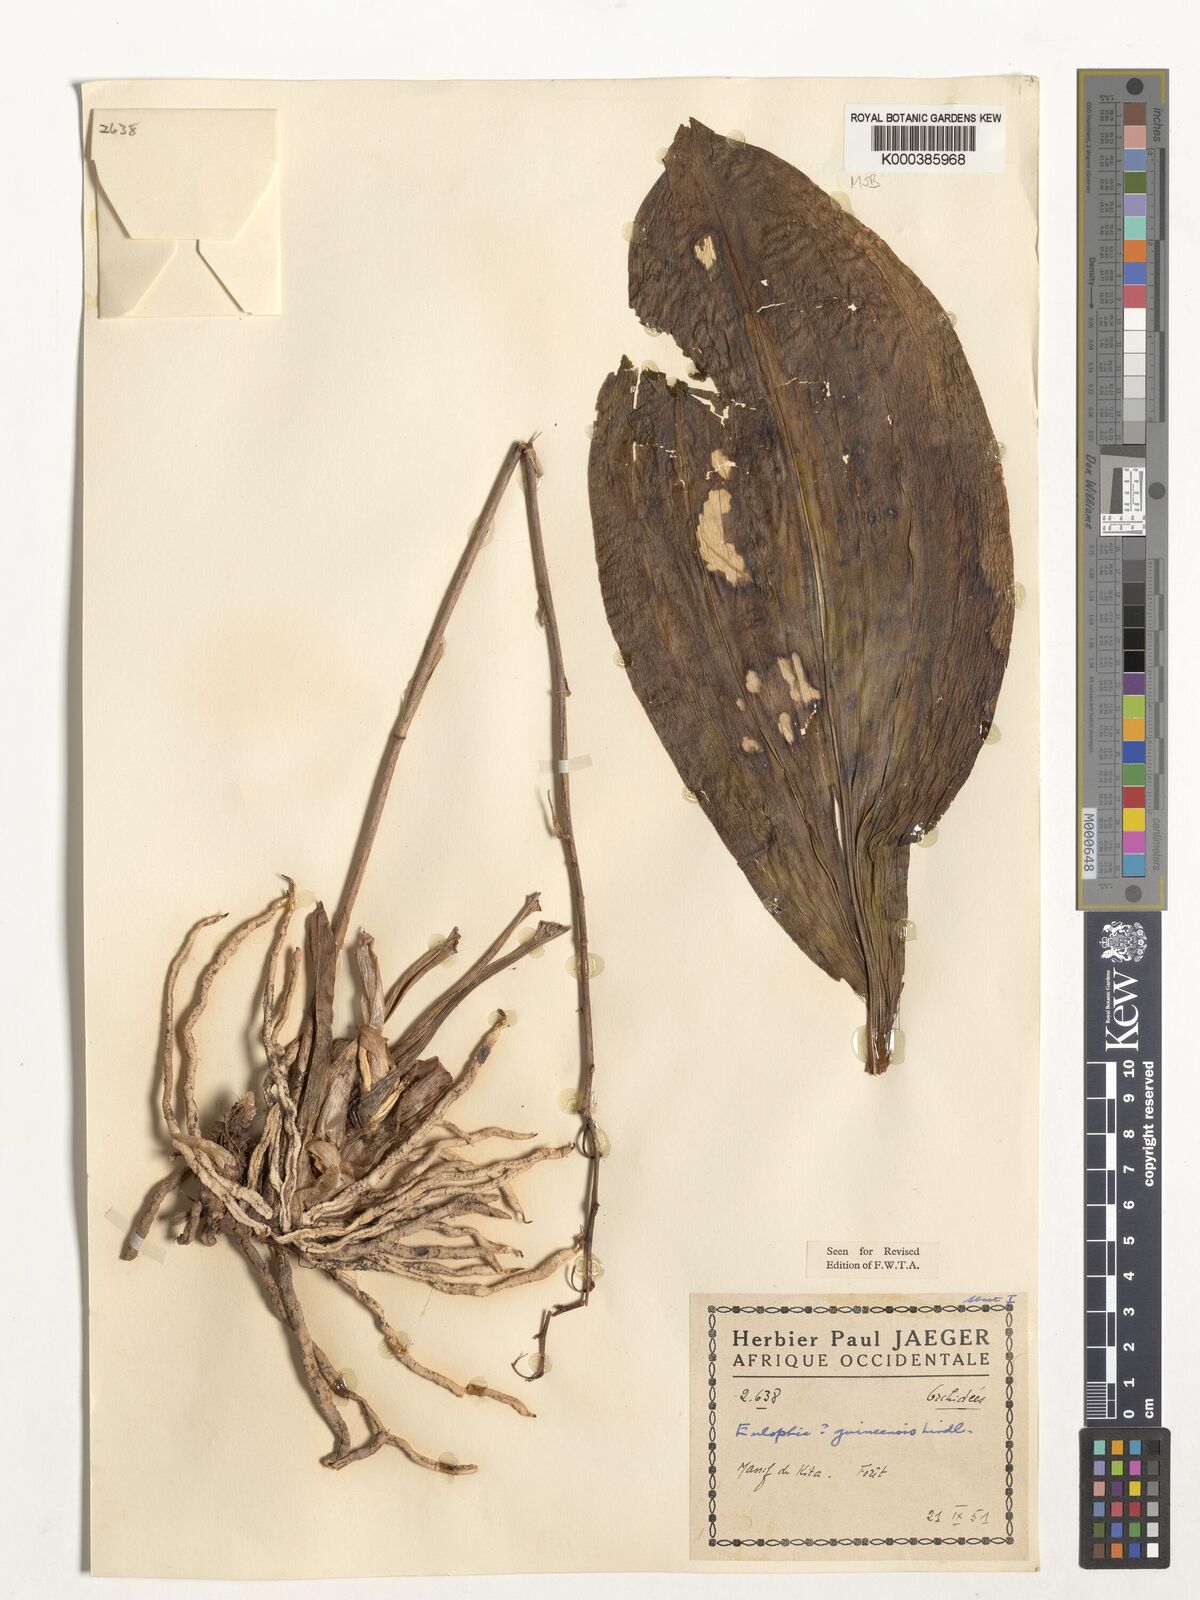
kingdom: Plantae
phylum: Tracheophyta
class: Liliopsida
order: Asparagales
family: Orchidaceae
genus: Eulophia
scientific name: Eulophia guineensis
